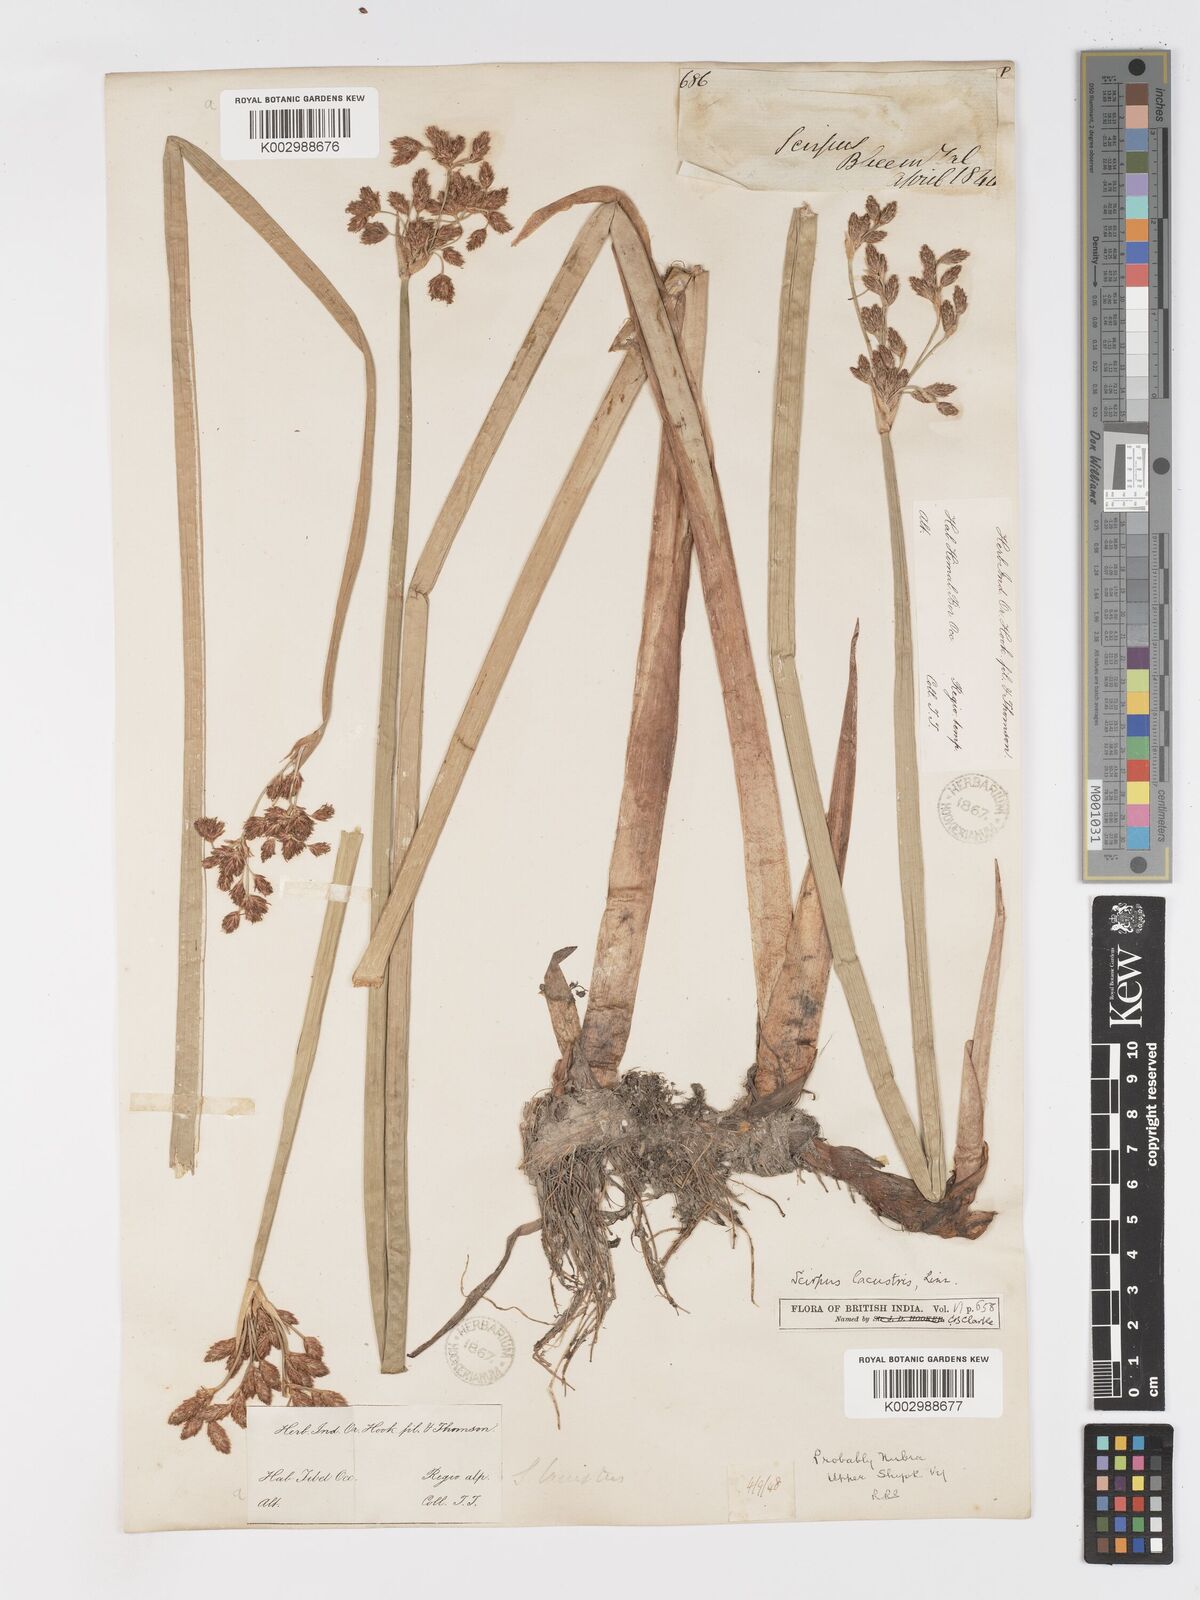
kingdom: Plantae
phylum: Tracheophyta
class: Liliopsida
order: Poales
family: Cyperaceae
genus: Schoenoplectus
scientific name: Schoenoplectus lacustris
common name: Common club-rush
